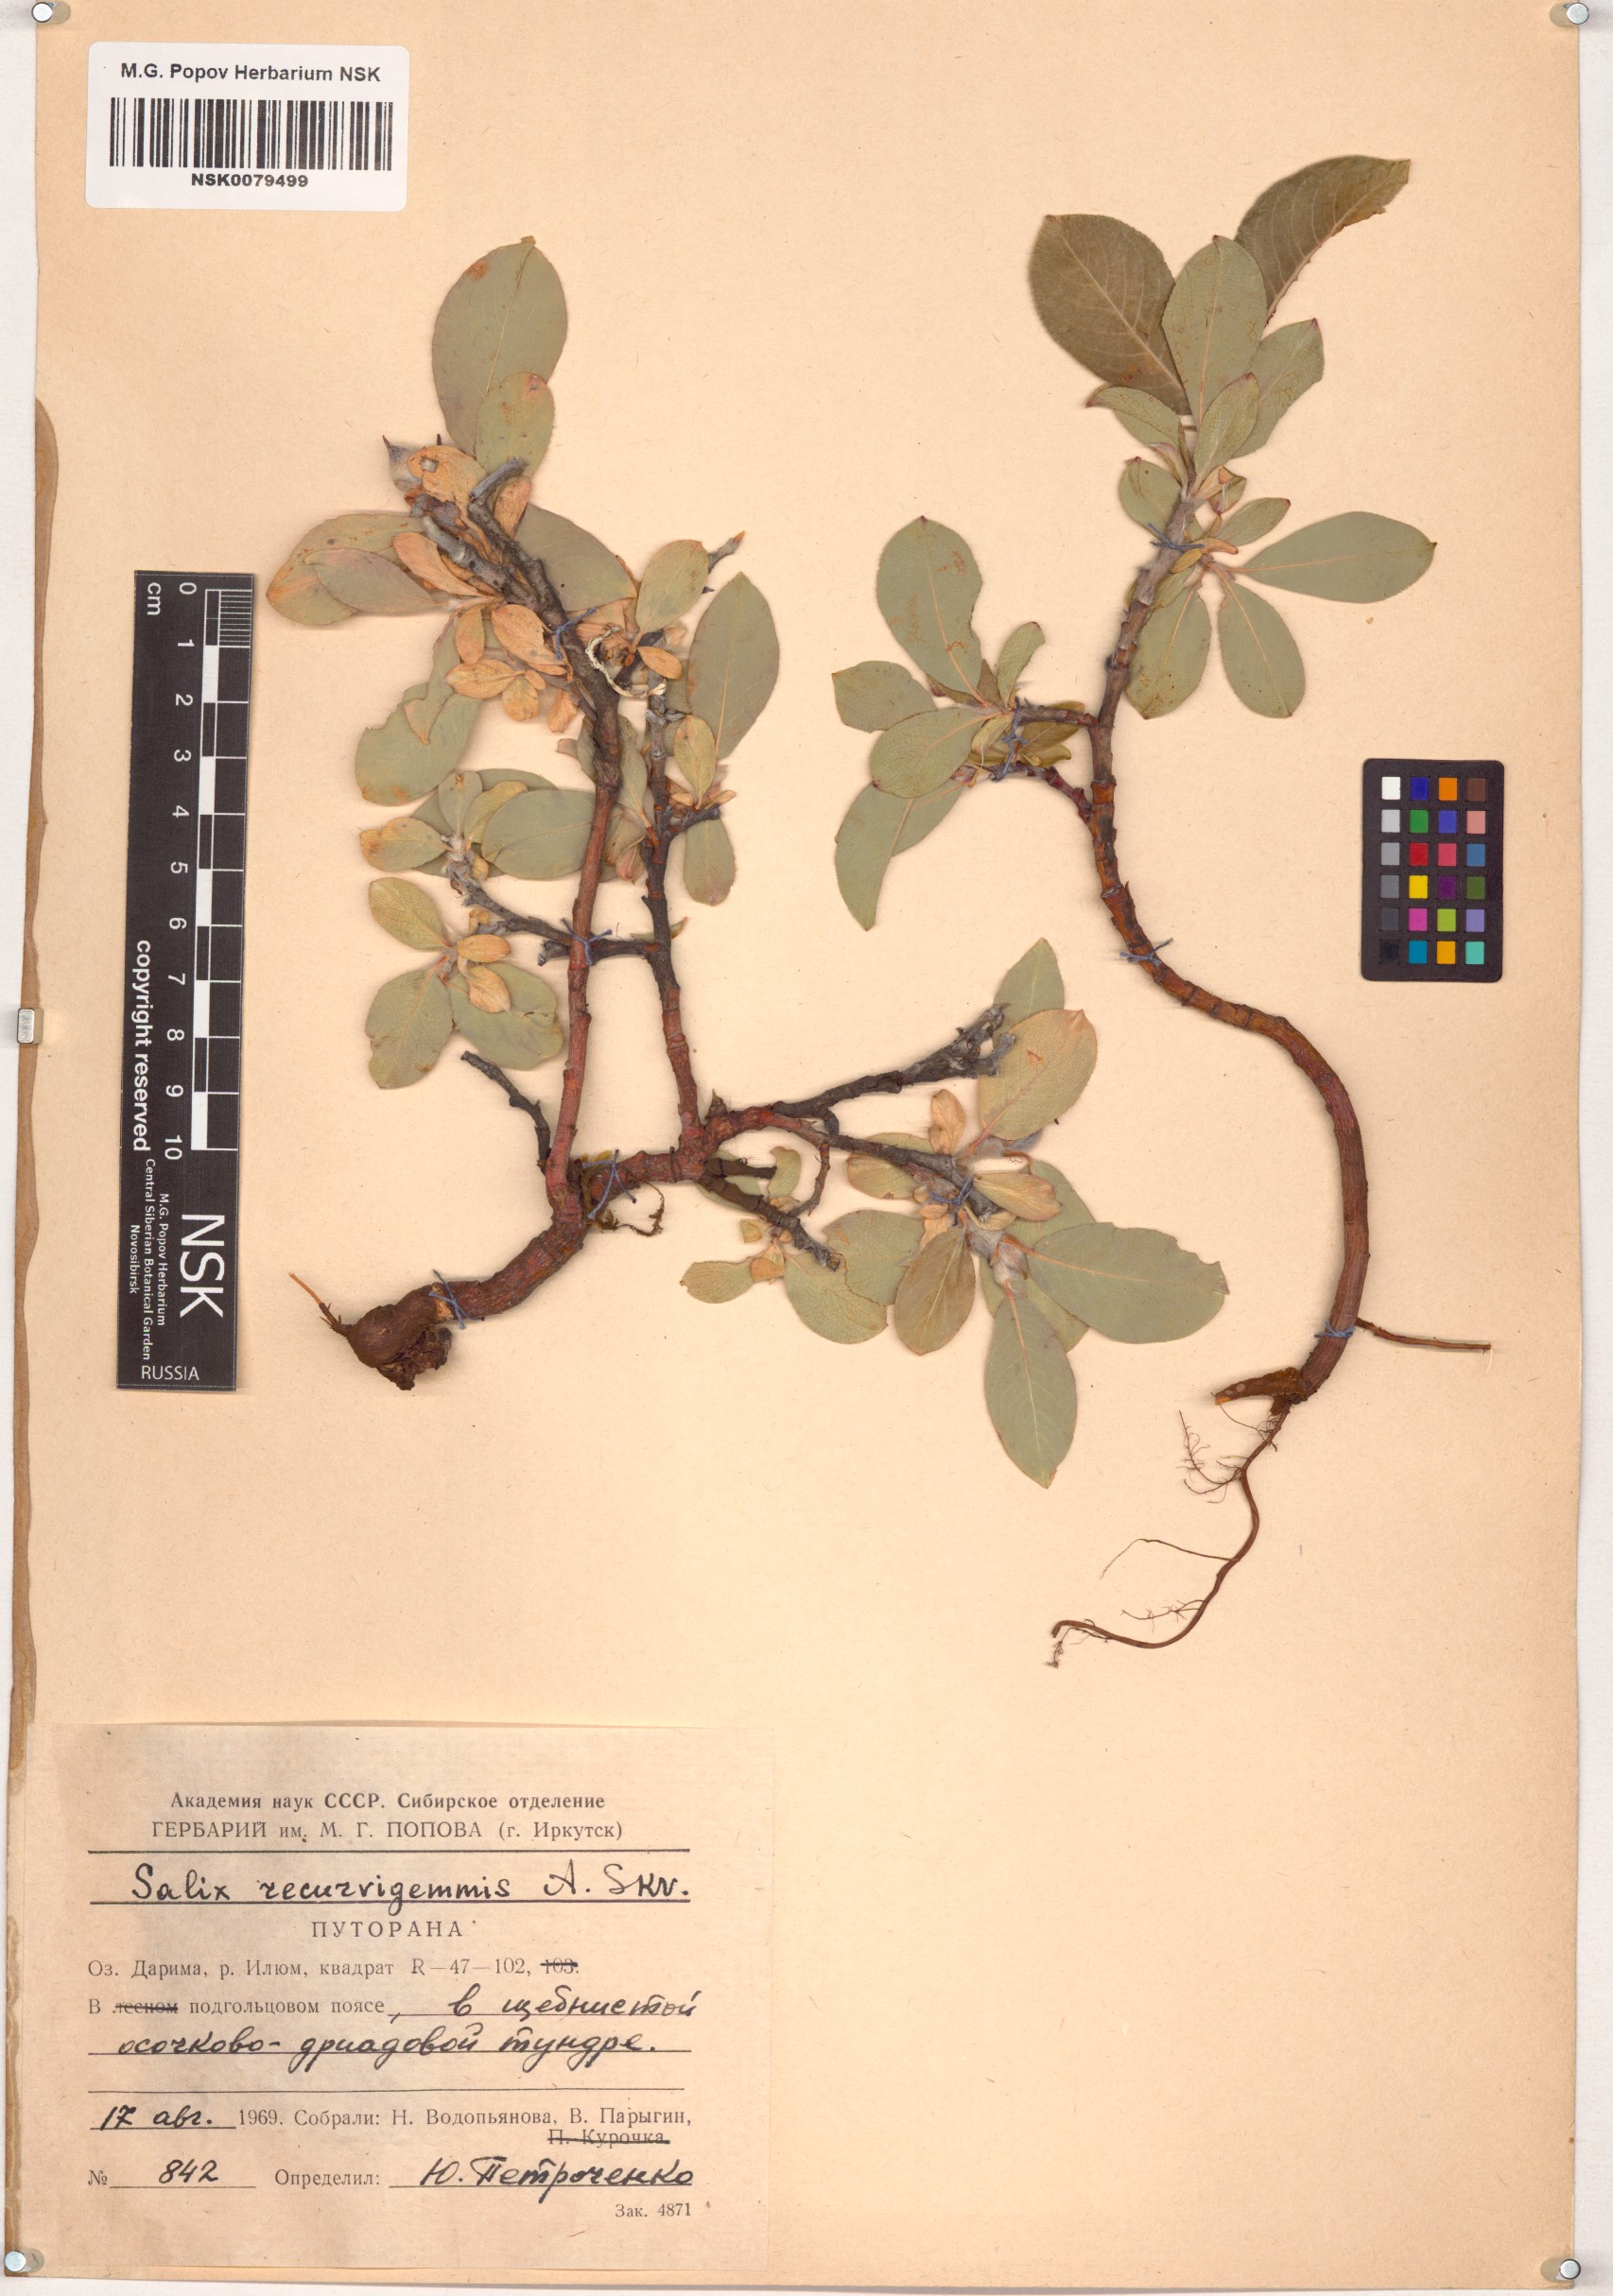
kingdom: Plantae
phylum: Tracheophyta
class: Magnoliopsida
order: Malpighiales
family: Salicaceae
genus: Salix
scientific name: Salix recurvigemmata
